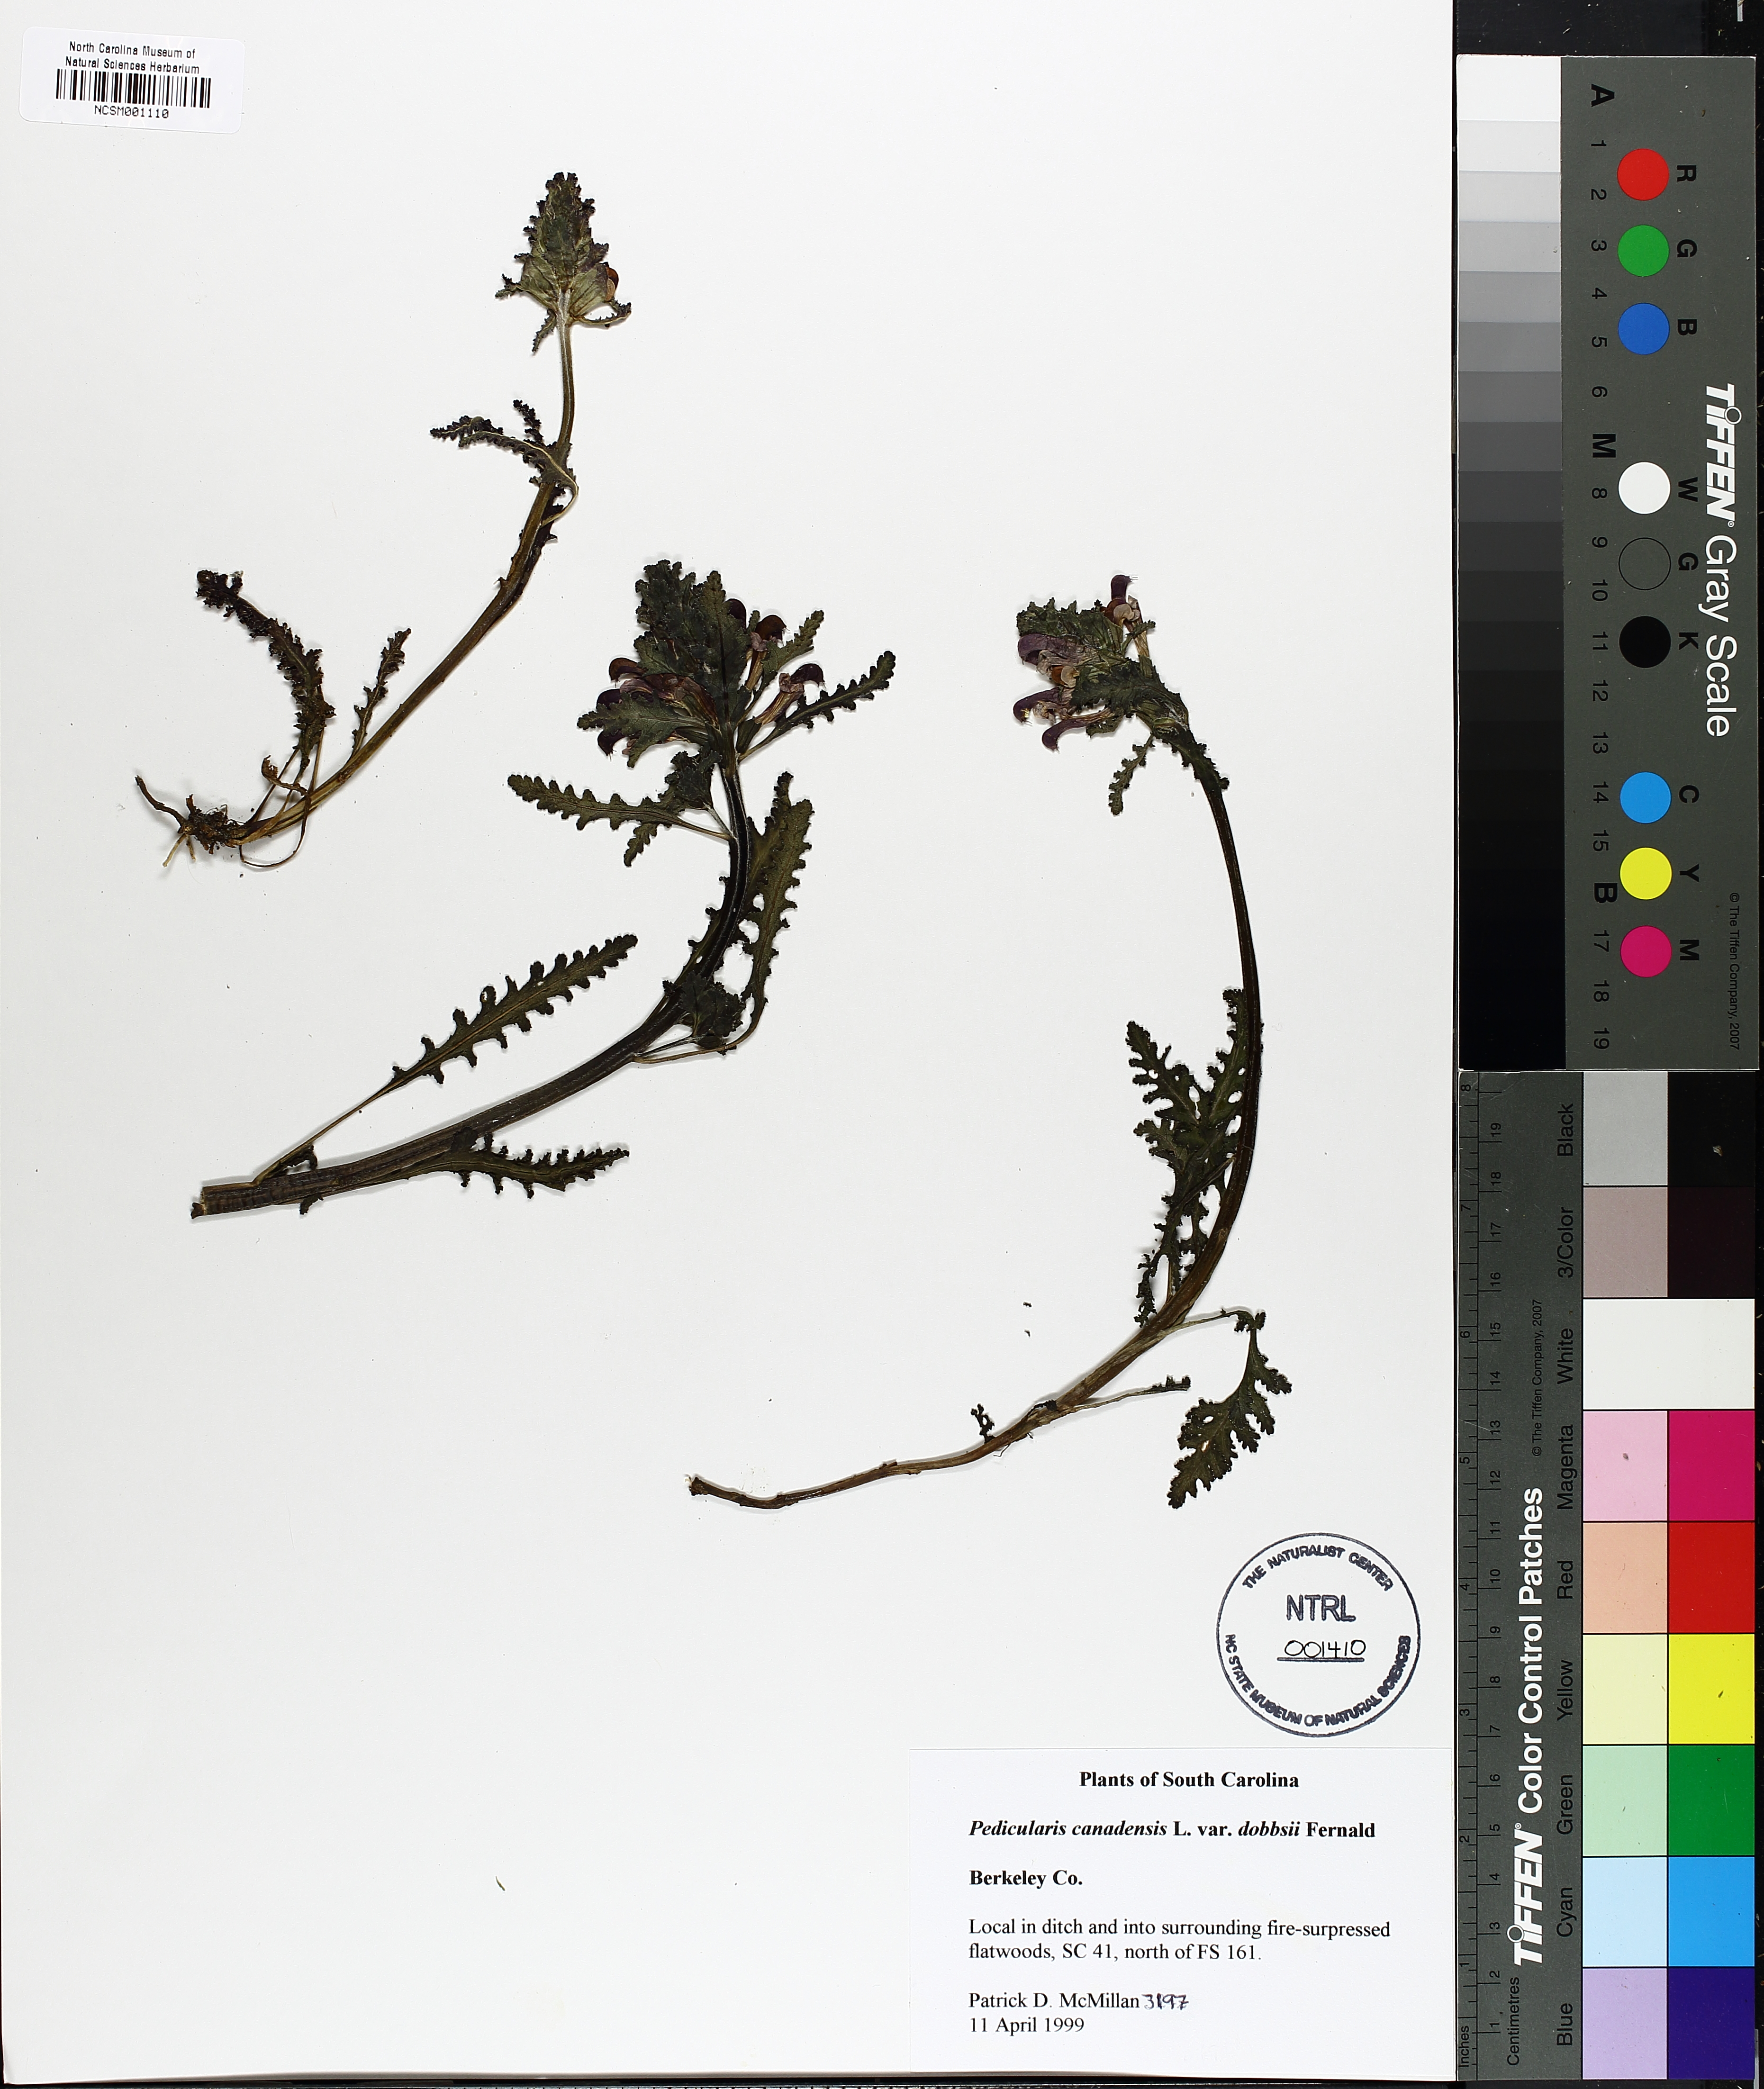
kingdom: Plantae
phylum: Tracheophyta
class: Magnoliopsida
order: Lamiales
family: Orobanchaceae
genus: Pedicularis
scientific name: Pedicularis canadensis
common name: Early lousewort
